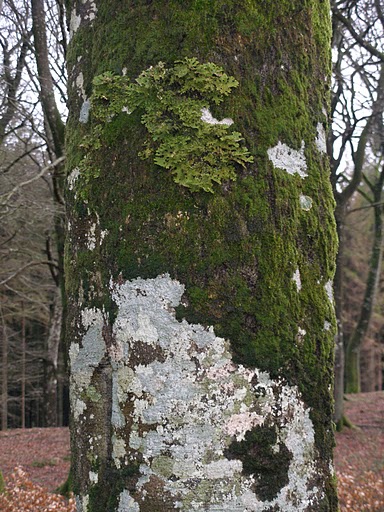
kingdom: Fungi
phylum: Ascomycota
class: Lecanoromycetes
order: Peltigerales
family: Lobariaceae
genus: Lobaria
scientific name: Lobaria pulmonaria
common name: almindelig lungelav
